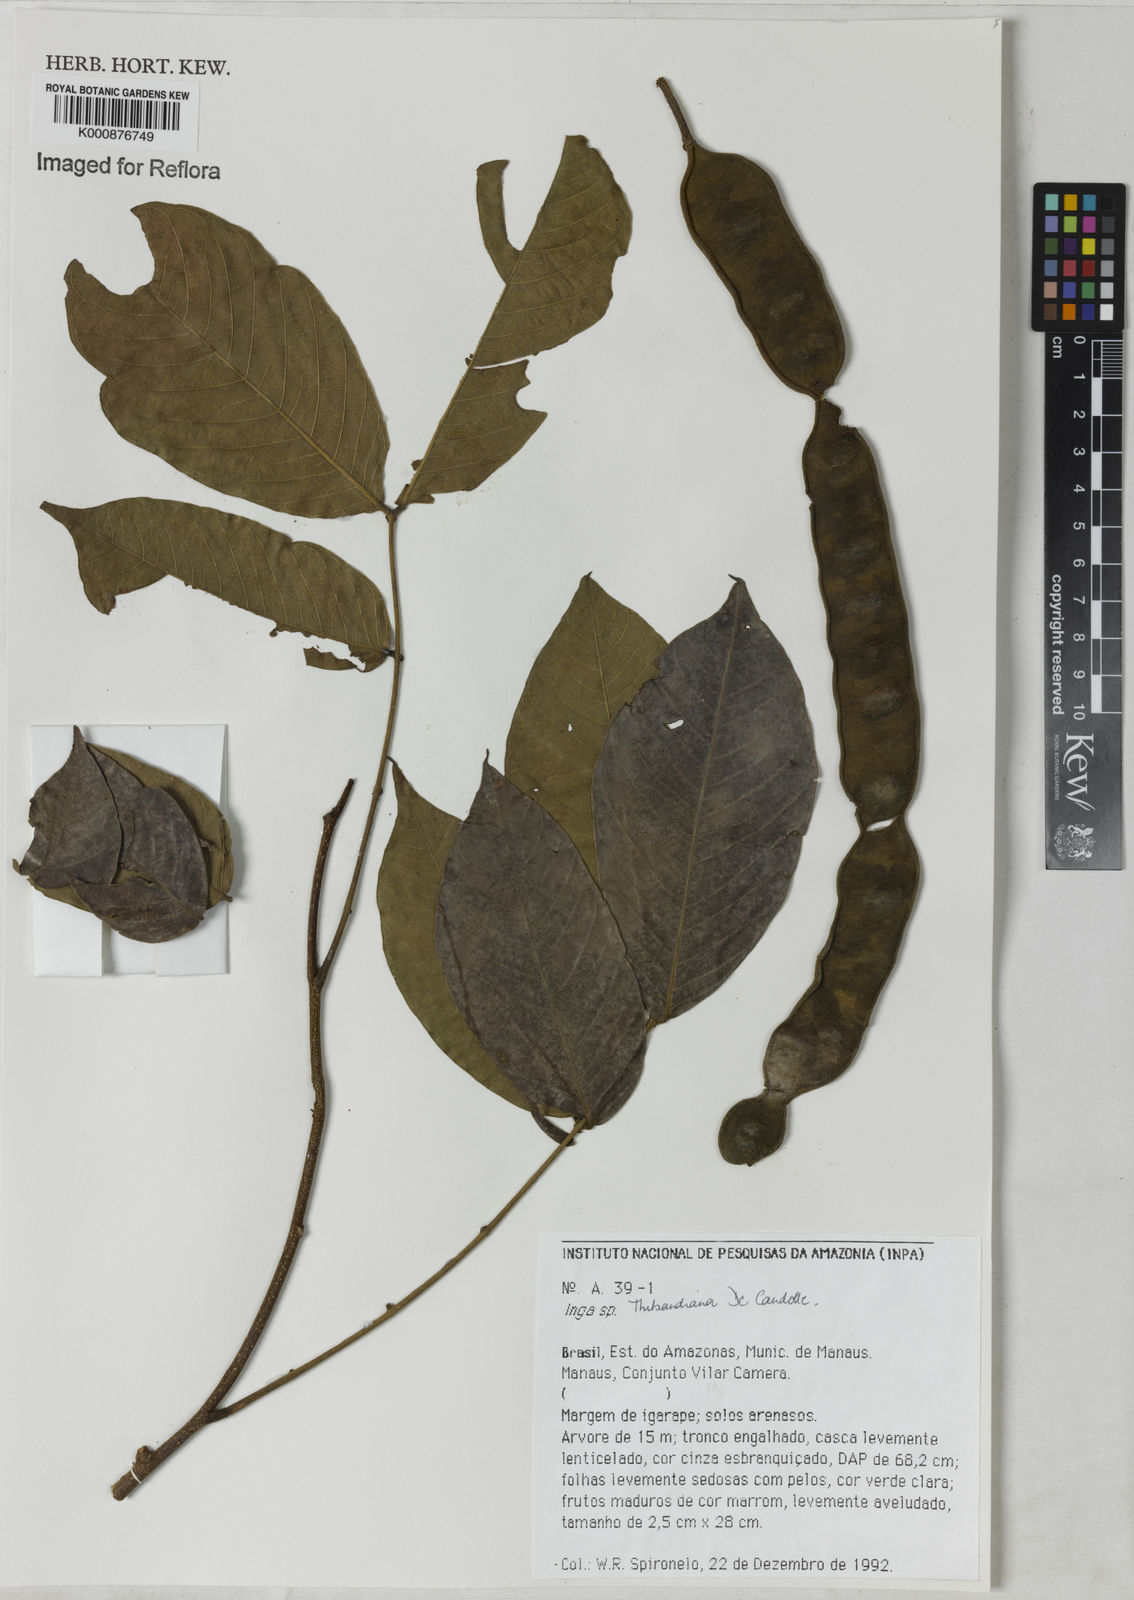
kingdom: Plantae
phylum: Tracheophyta
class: Magnoliopsida
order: Fabales
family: Fabaceae
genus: Inga
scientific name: Inga thibaudiana
